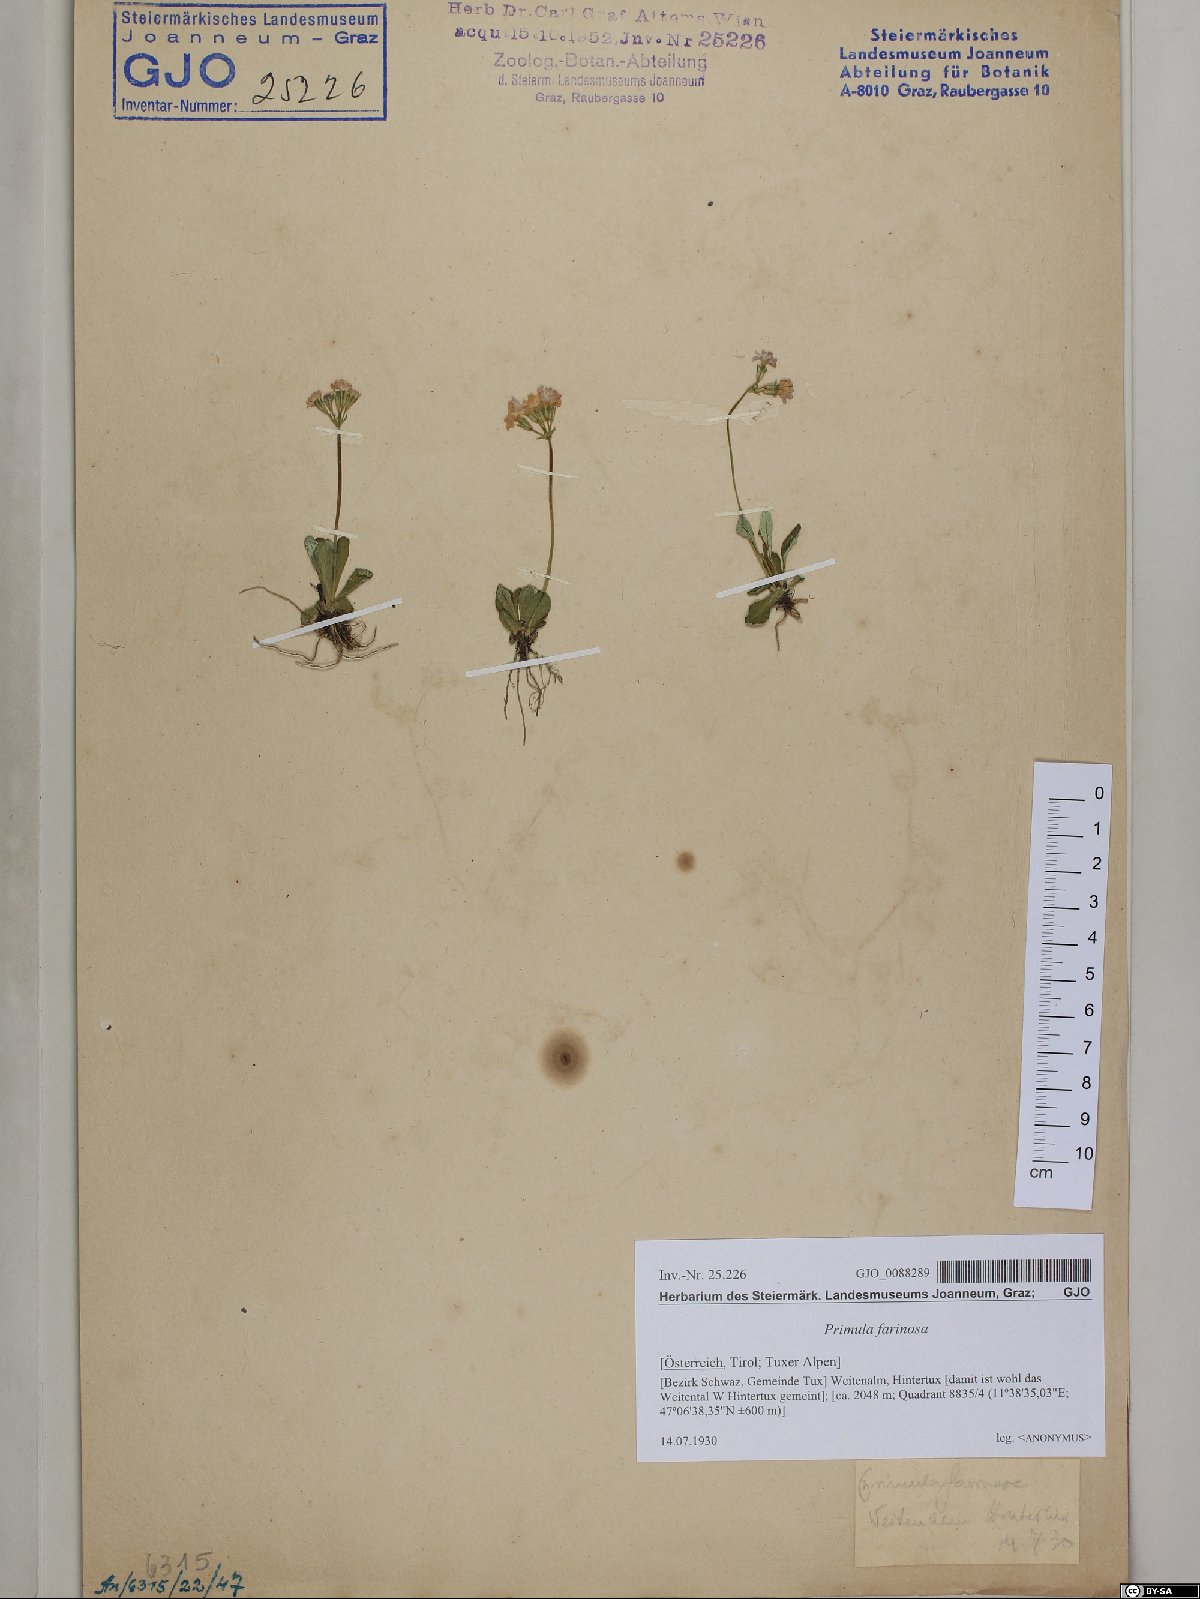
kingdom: Plantae
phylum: Tracheophyta
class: Magnoliopsida
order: Ericales
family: Primulaceae
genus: Primula
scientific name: Primula farinosa
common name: Bird's-eye primrose
